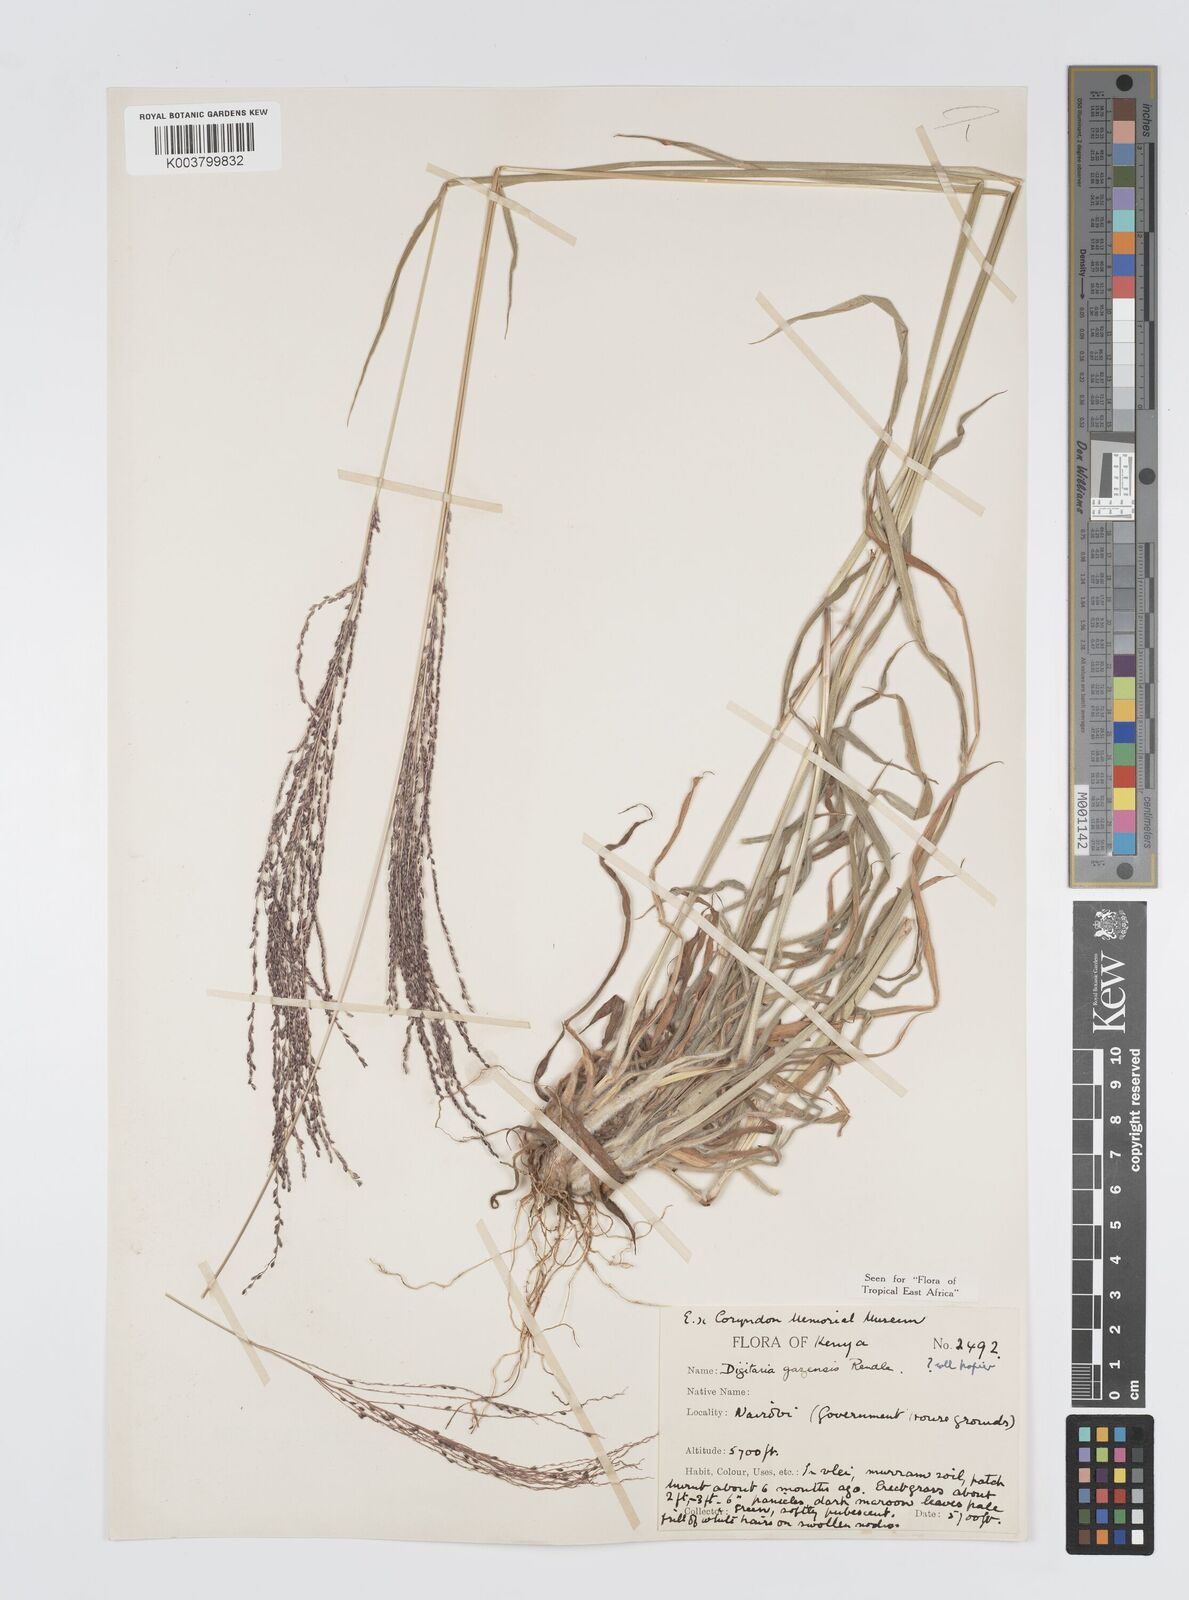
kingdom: Plantae
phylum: Tracheophyta
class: Liliopsida
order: Poales
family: Poaceae
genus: Digitaria
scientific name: Digitaria gazensis
